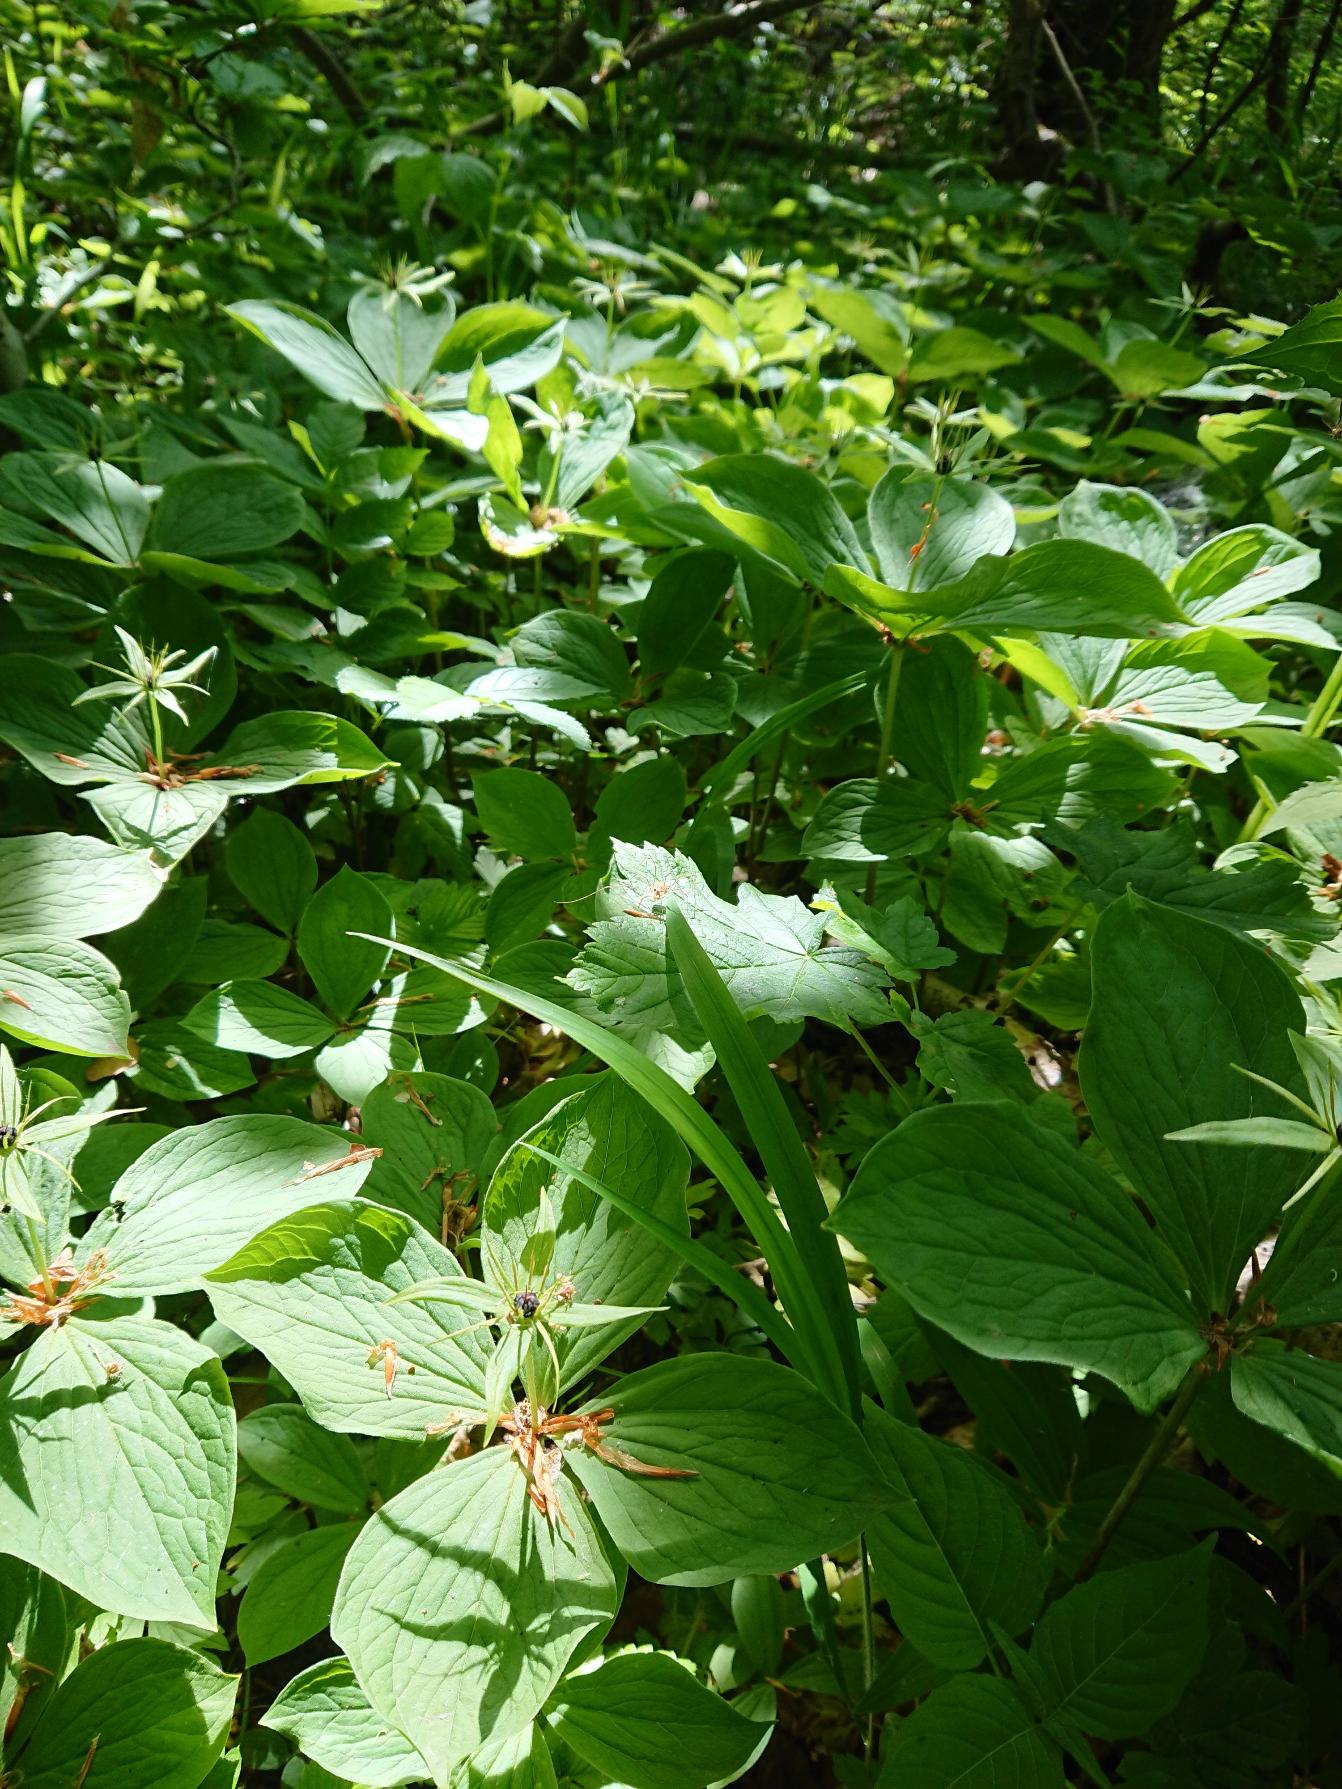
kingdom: Plantae
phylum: Tracheophyta
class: Liliopsida
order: Liliales
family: Melanthiaceae
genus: Paris
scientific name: Paris quadrifolia
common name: Firblad
